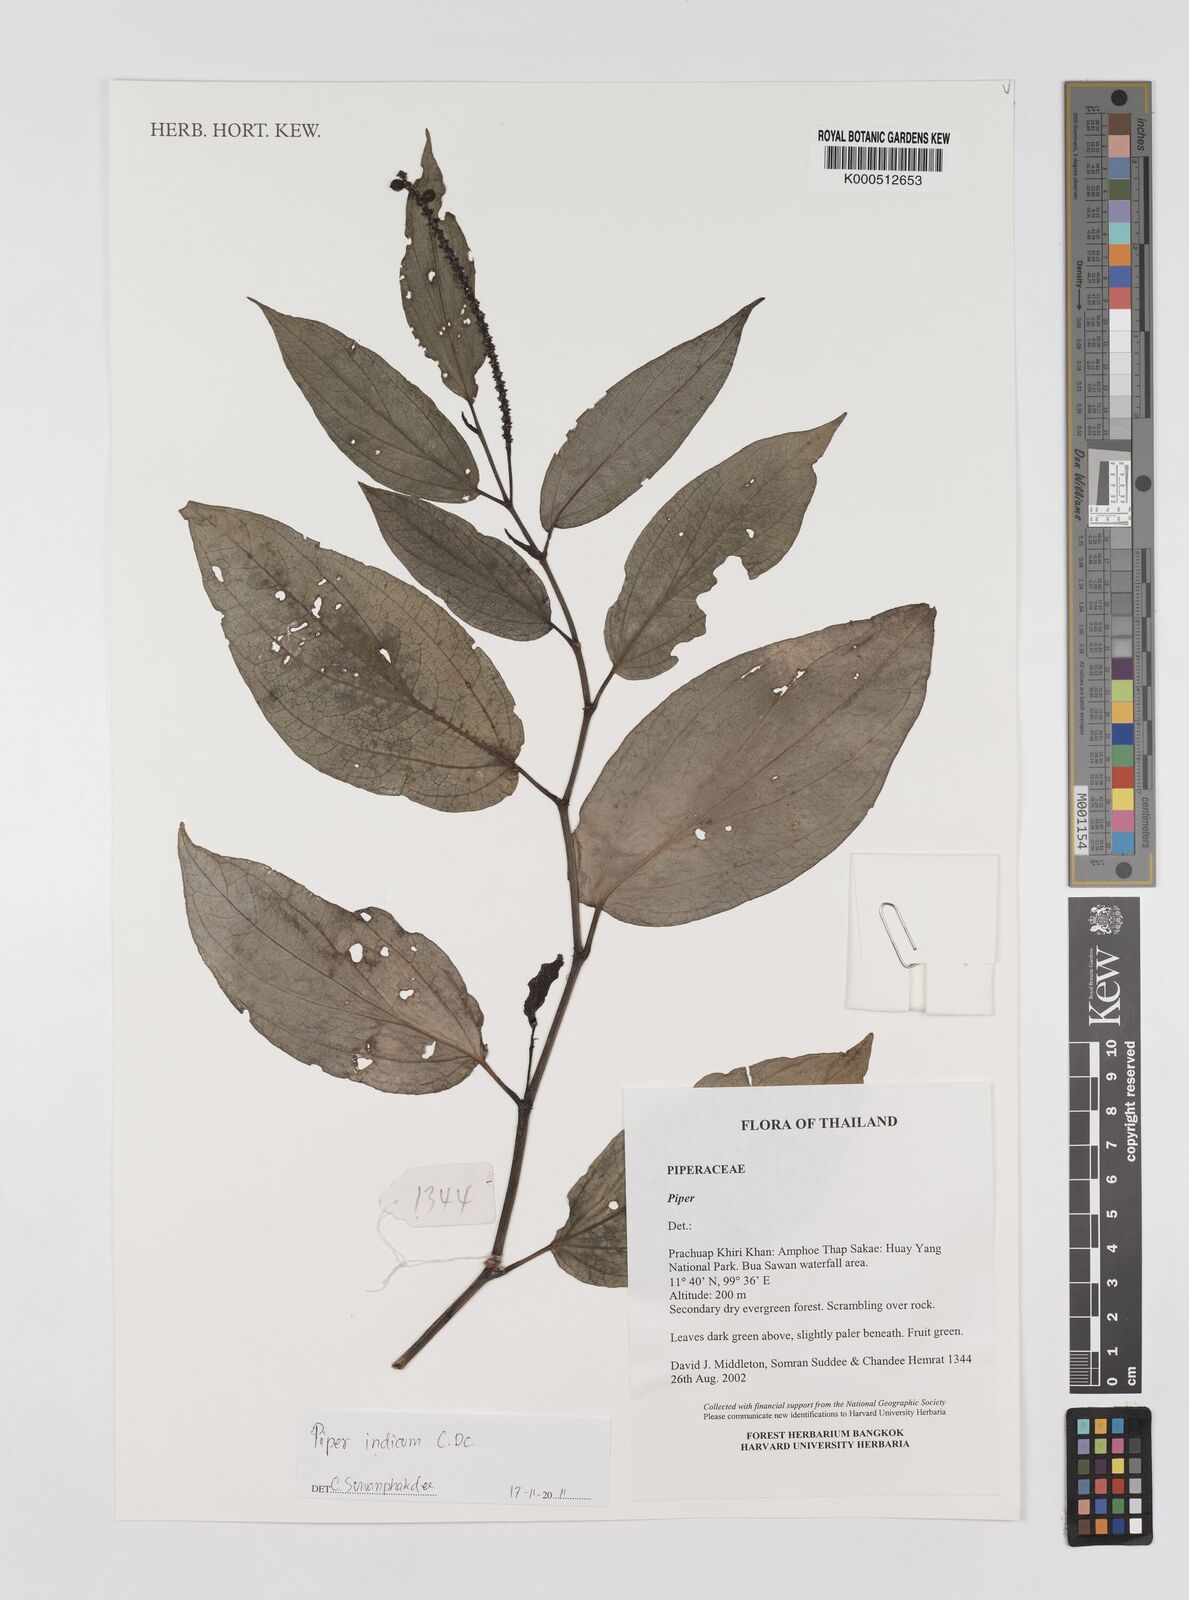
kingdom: Plantae
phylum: Tracheophyta
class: Magnoliopsida
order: Piperales
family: Piperaceae
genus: Piper
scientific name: Piper
